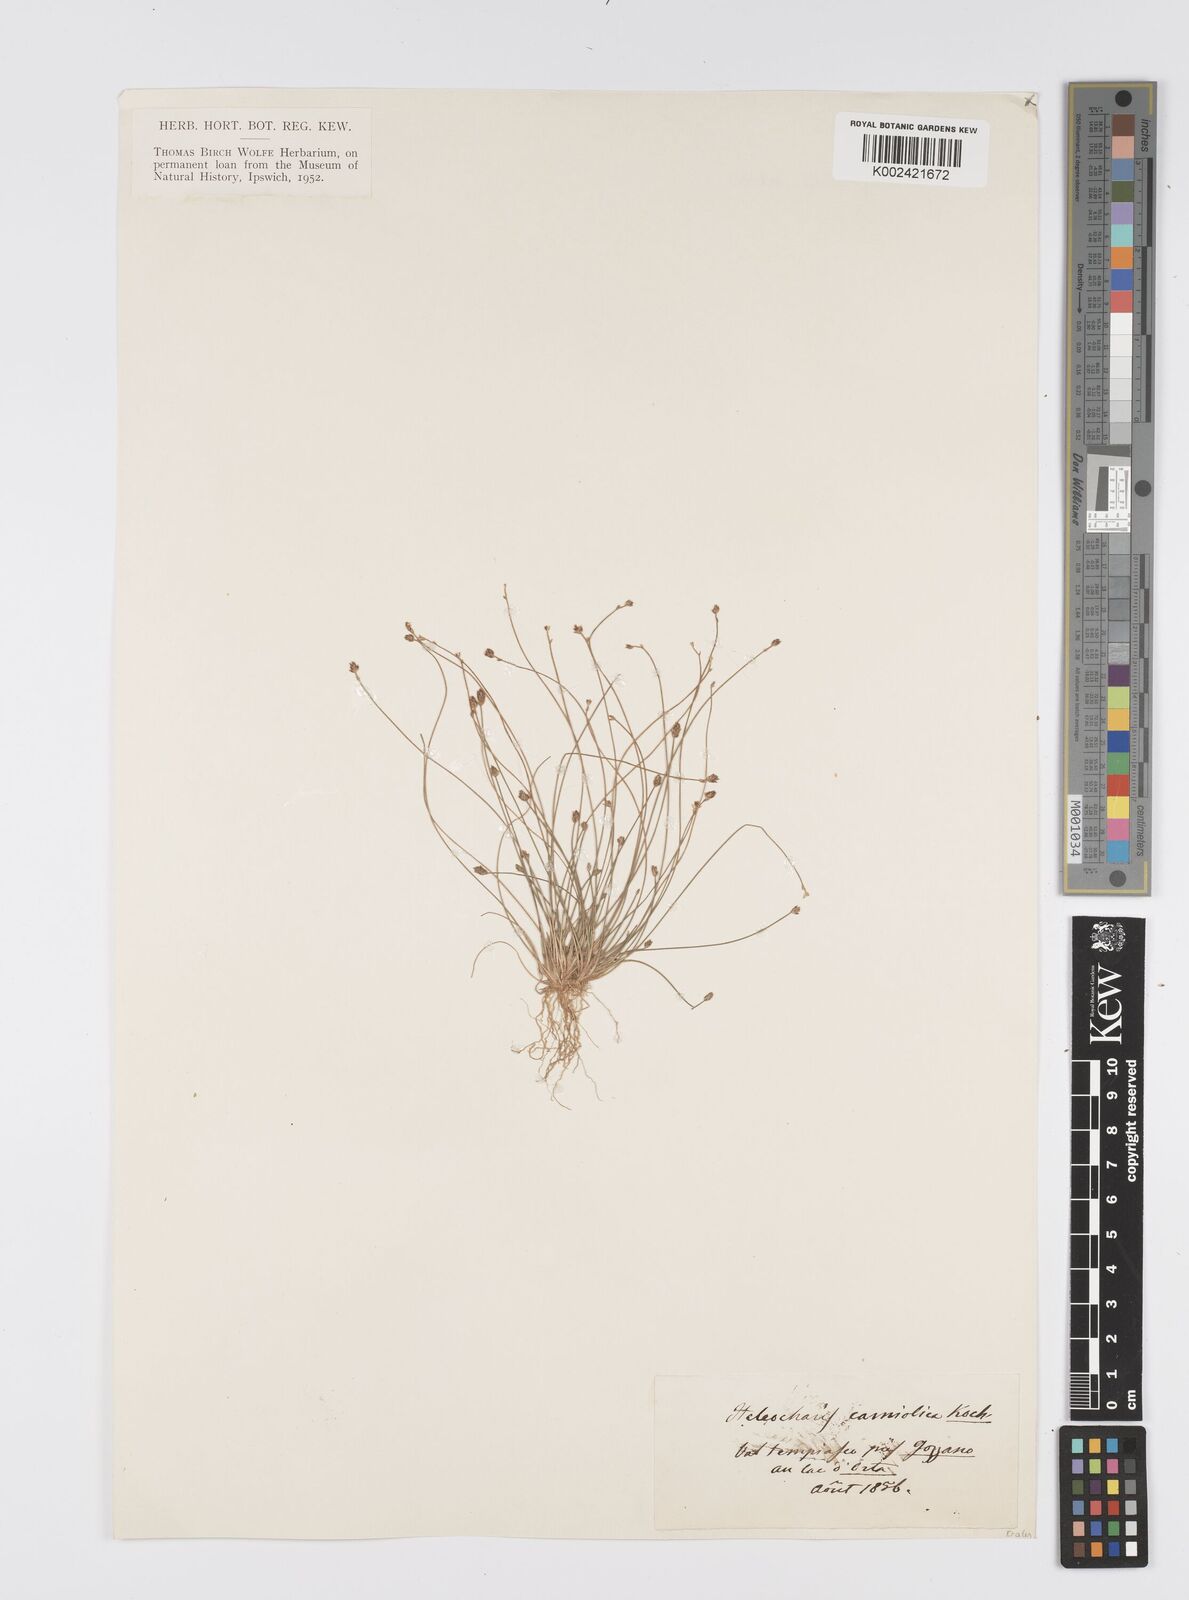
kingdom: Plantae
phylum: Tracheophyta
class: Liliopsida
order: Poales
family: Cyperaceae
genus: Eleocharis
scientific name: Eleocharis carniolica
